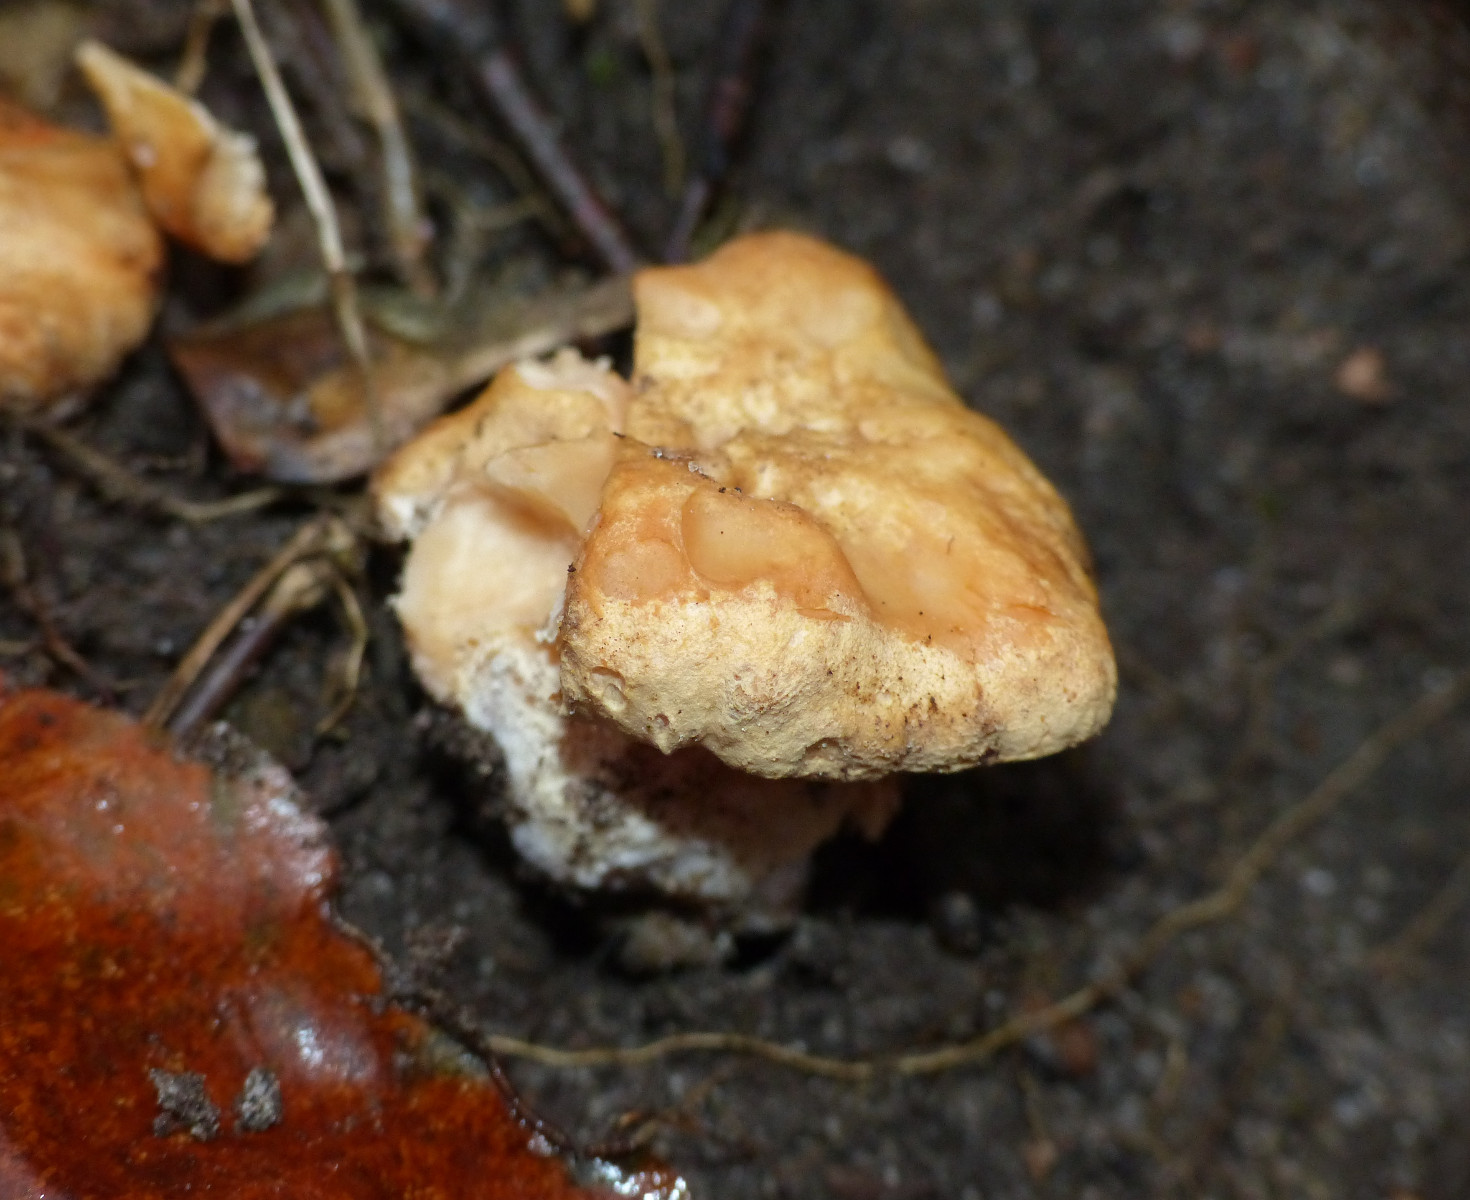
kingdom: Fungi
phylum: Basidiomycota
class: Agaricomycetes
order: Cantharellales
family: Hydnaceae
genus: Hydnum
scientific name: Hydnum ellipsosporum
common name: tandet pigsvamp
